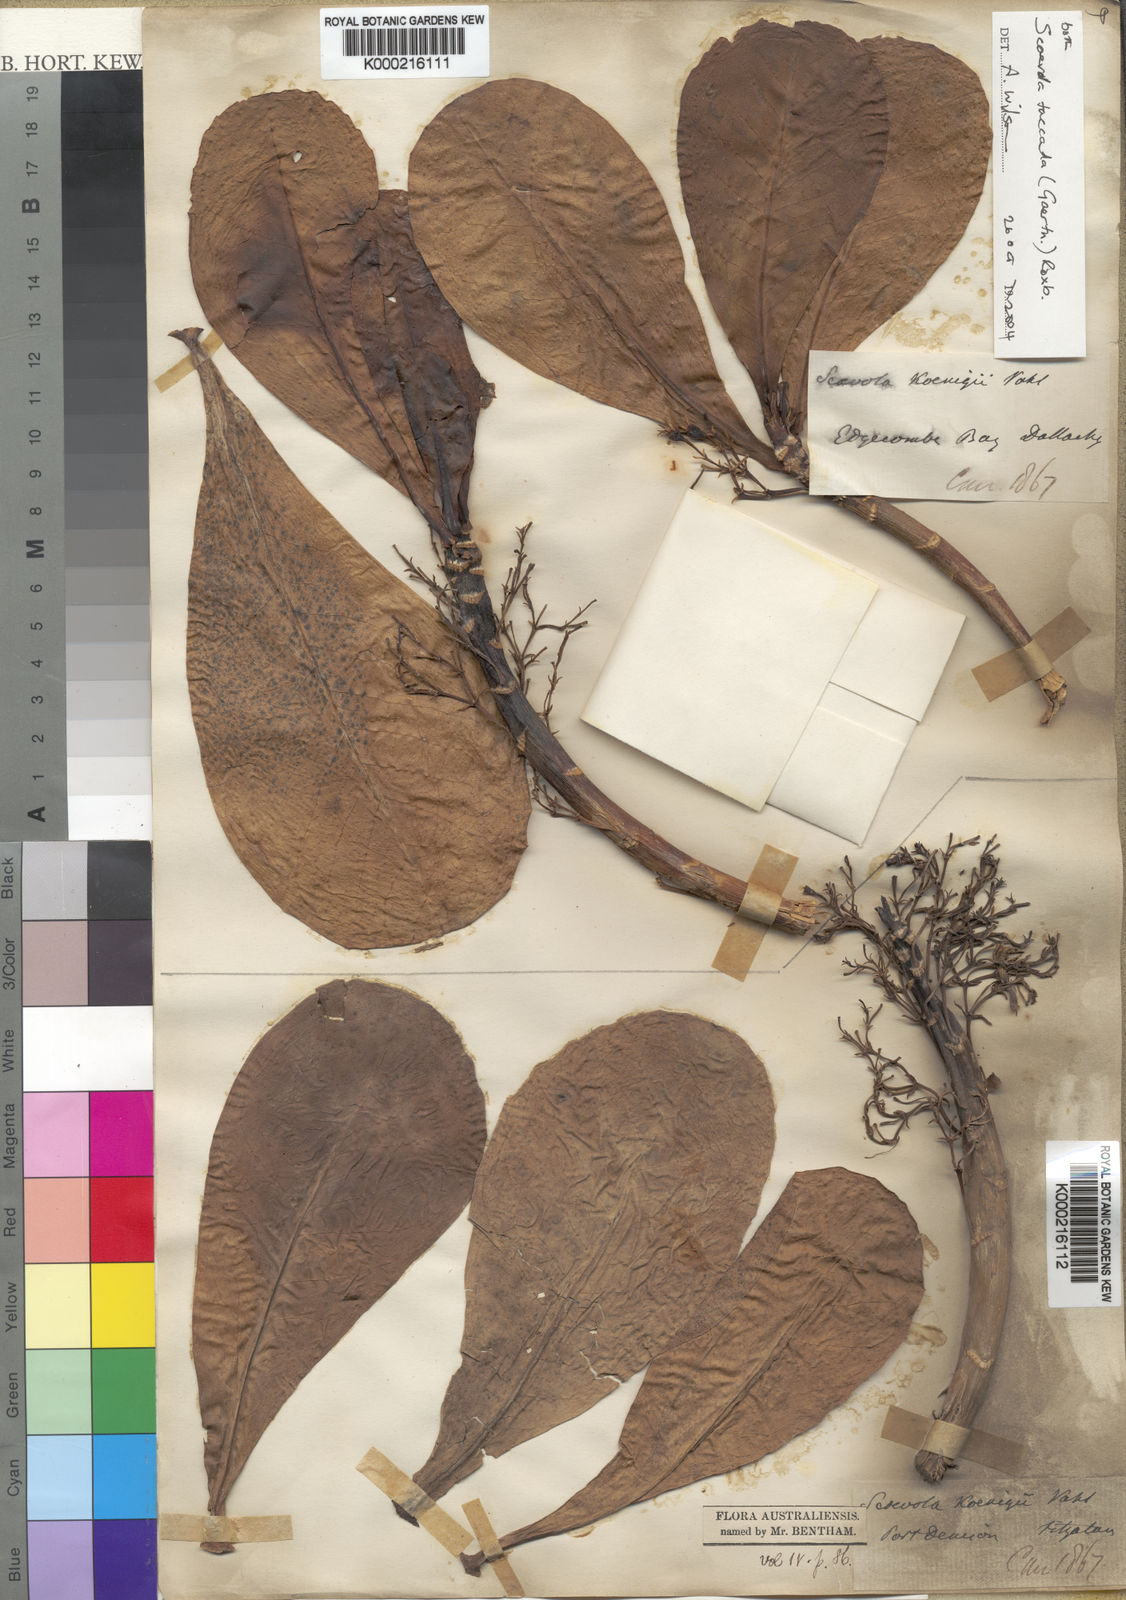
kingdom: Plantae
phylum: Tracheophyta
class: Magnoliopsida
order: Asterales
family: Goodeniaceae
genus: Scaevola
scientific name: Scaevola taccada
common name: Sea lettucetree
